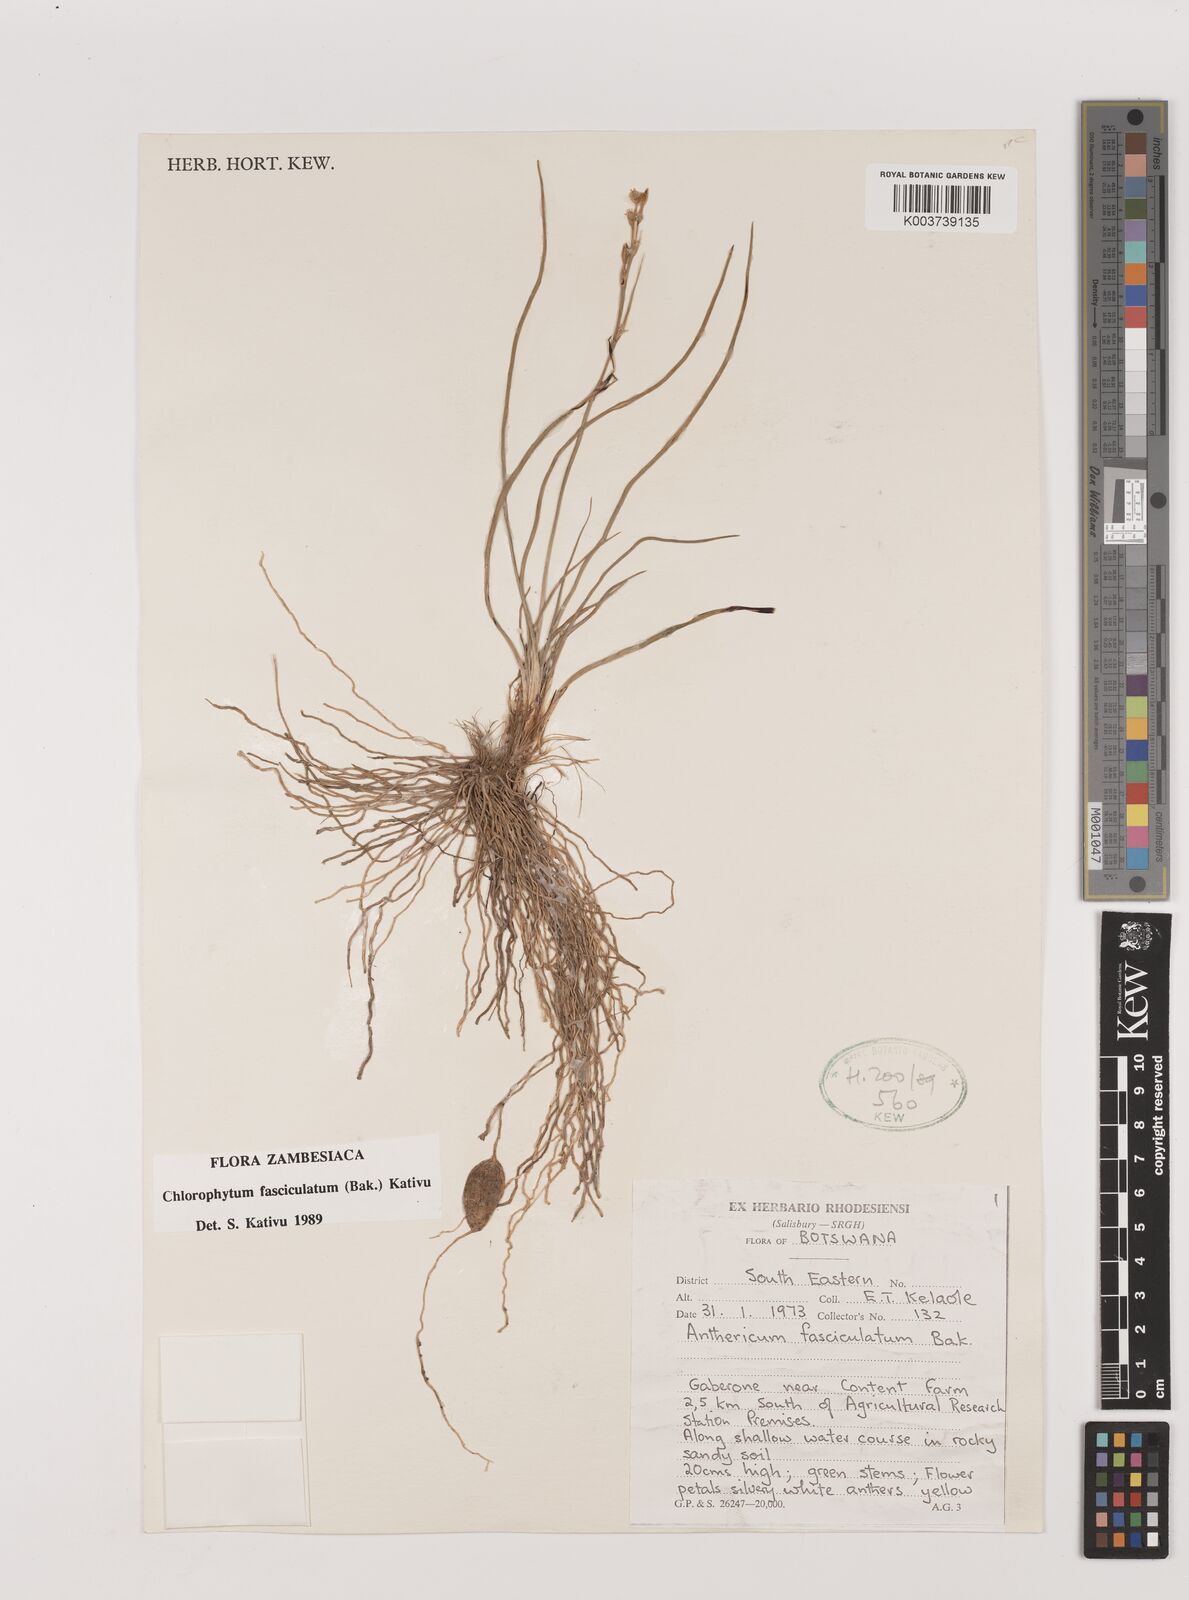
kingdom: Plantae
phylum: Tracheophyta
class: Liliopsida
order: Asparagales
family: Asparagaceae
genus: Chlorophytum
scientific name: Chlorophytum fasciculatum
